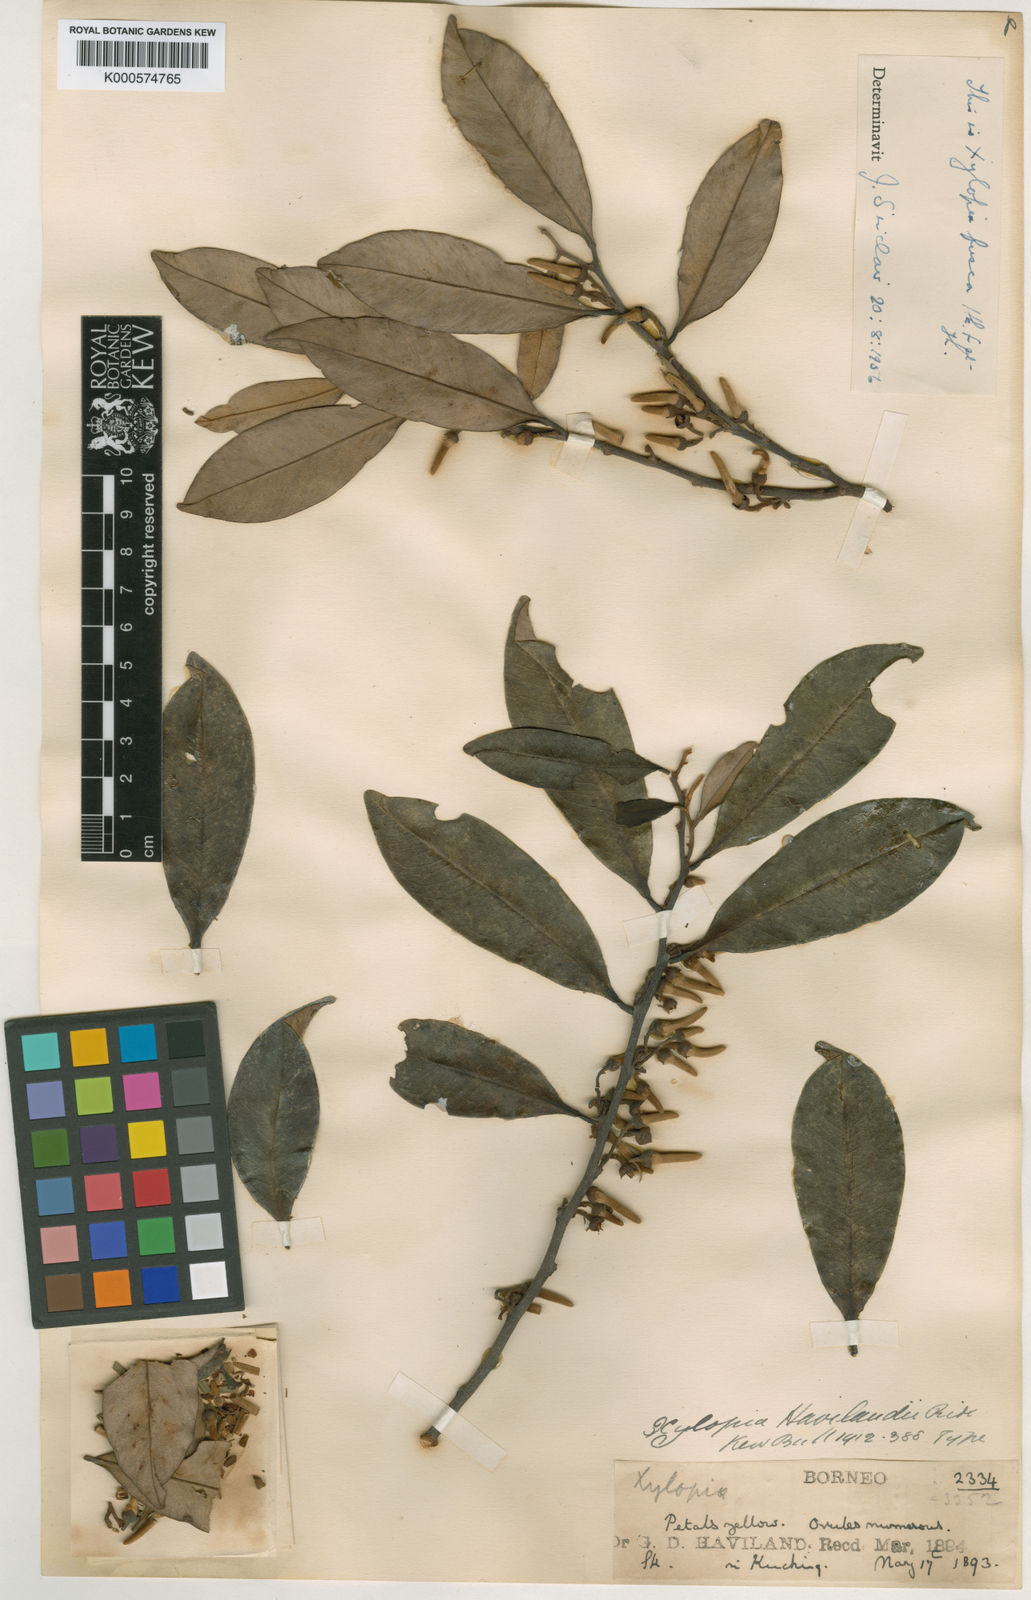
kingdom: Plantae
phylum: Tracheophyta
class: Magnoliopsida
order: Magnoliales
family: Annonaceae
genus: Xylopia
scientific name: Xylopia fusca
